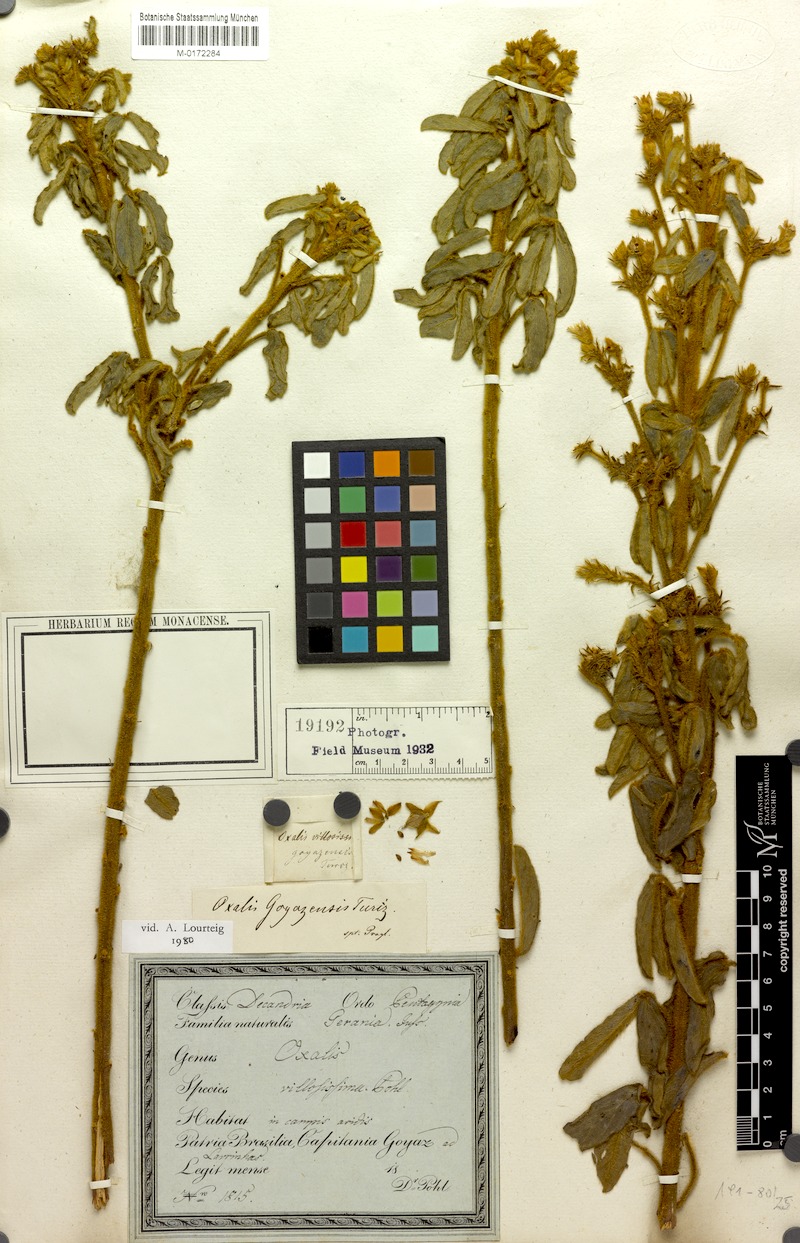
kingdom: Plantae
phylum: Tracheophyta
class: Magnoliopsida
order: Oxalidales
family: Oxalidaceae
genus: Oxalis
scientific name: Oxalis goyazensis
